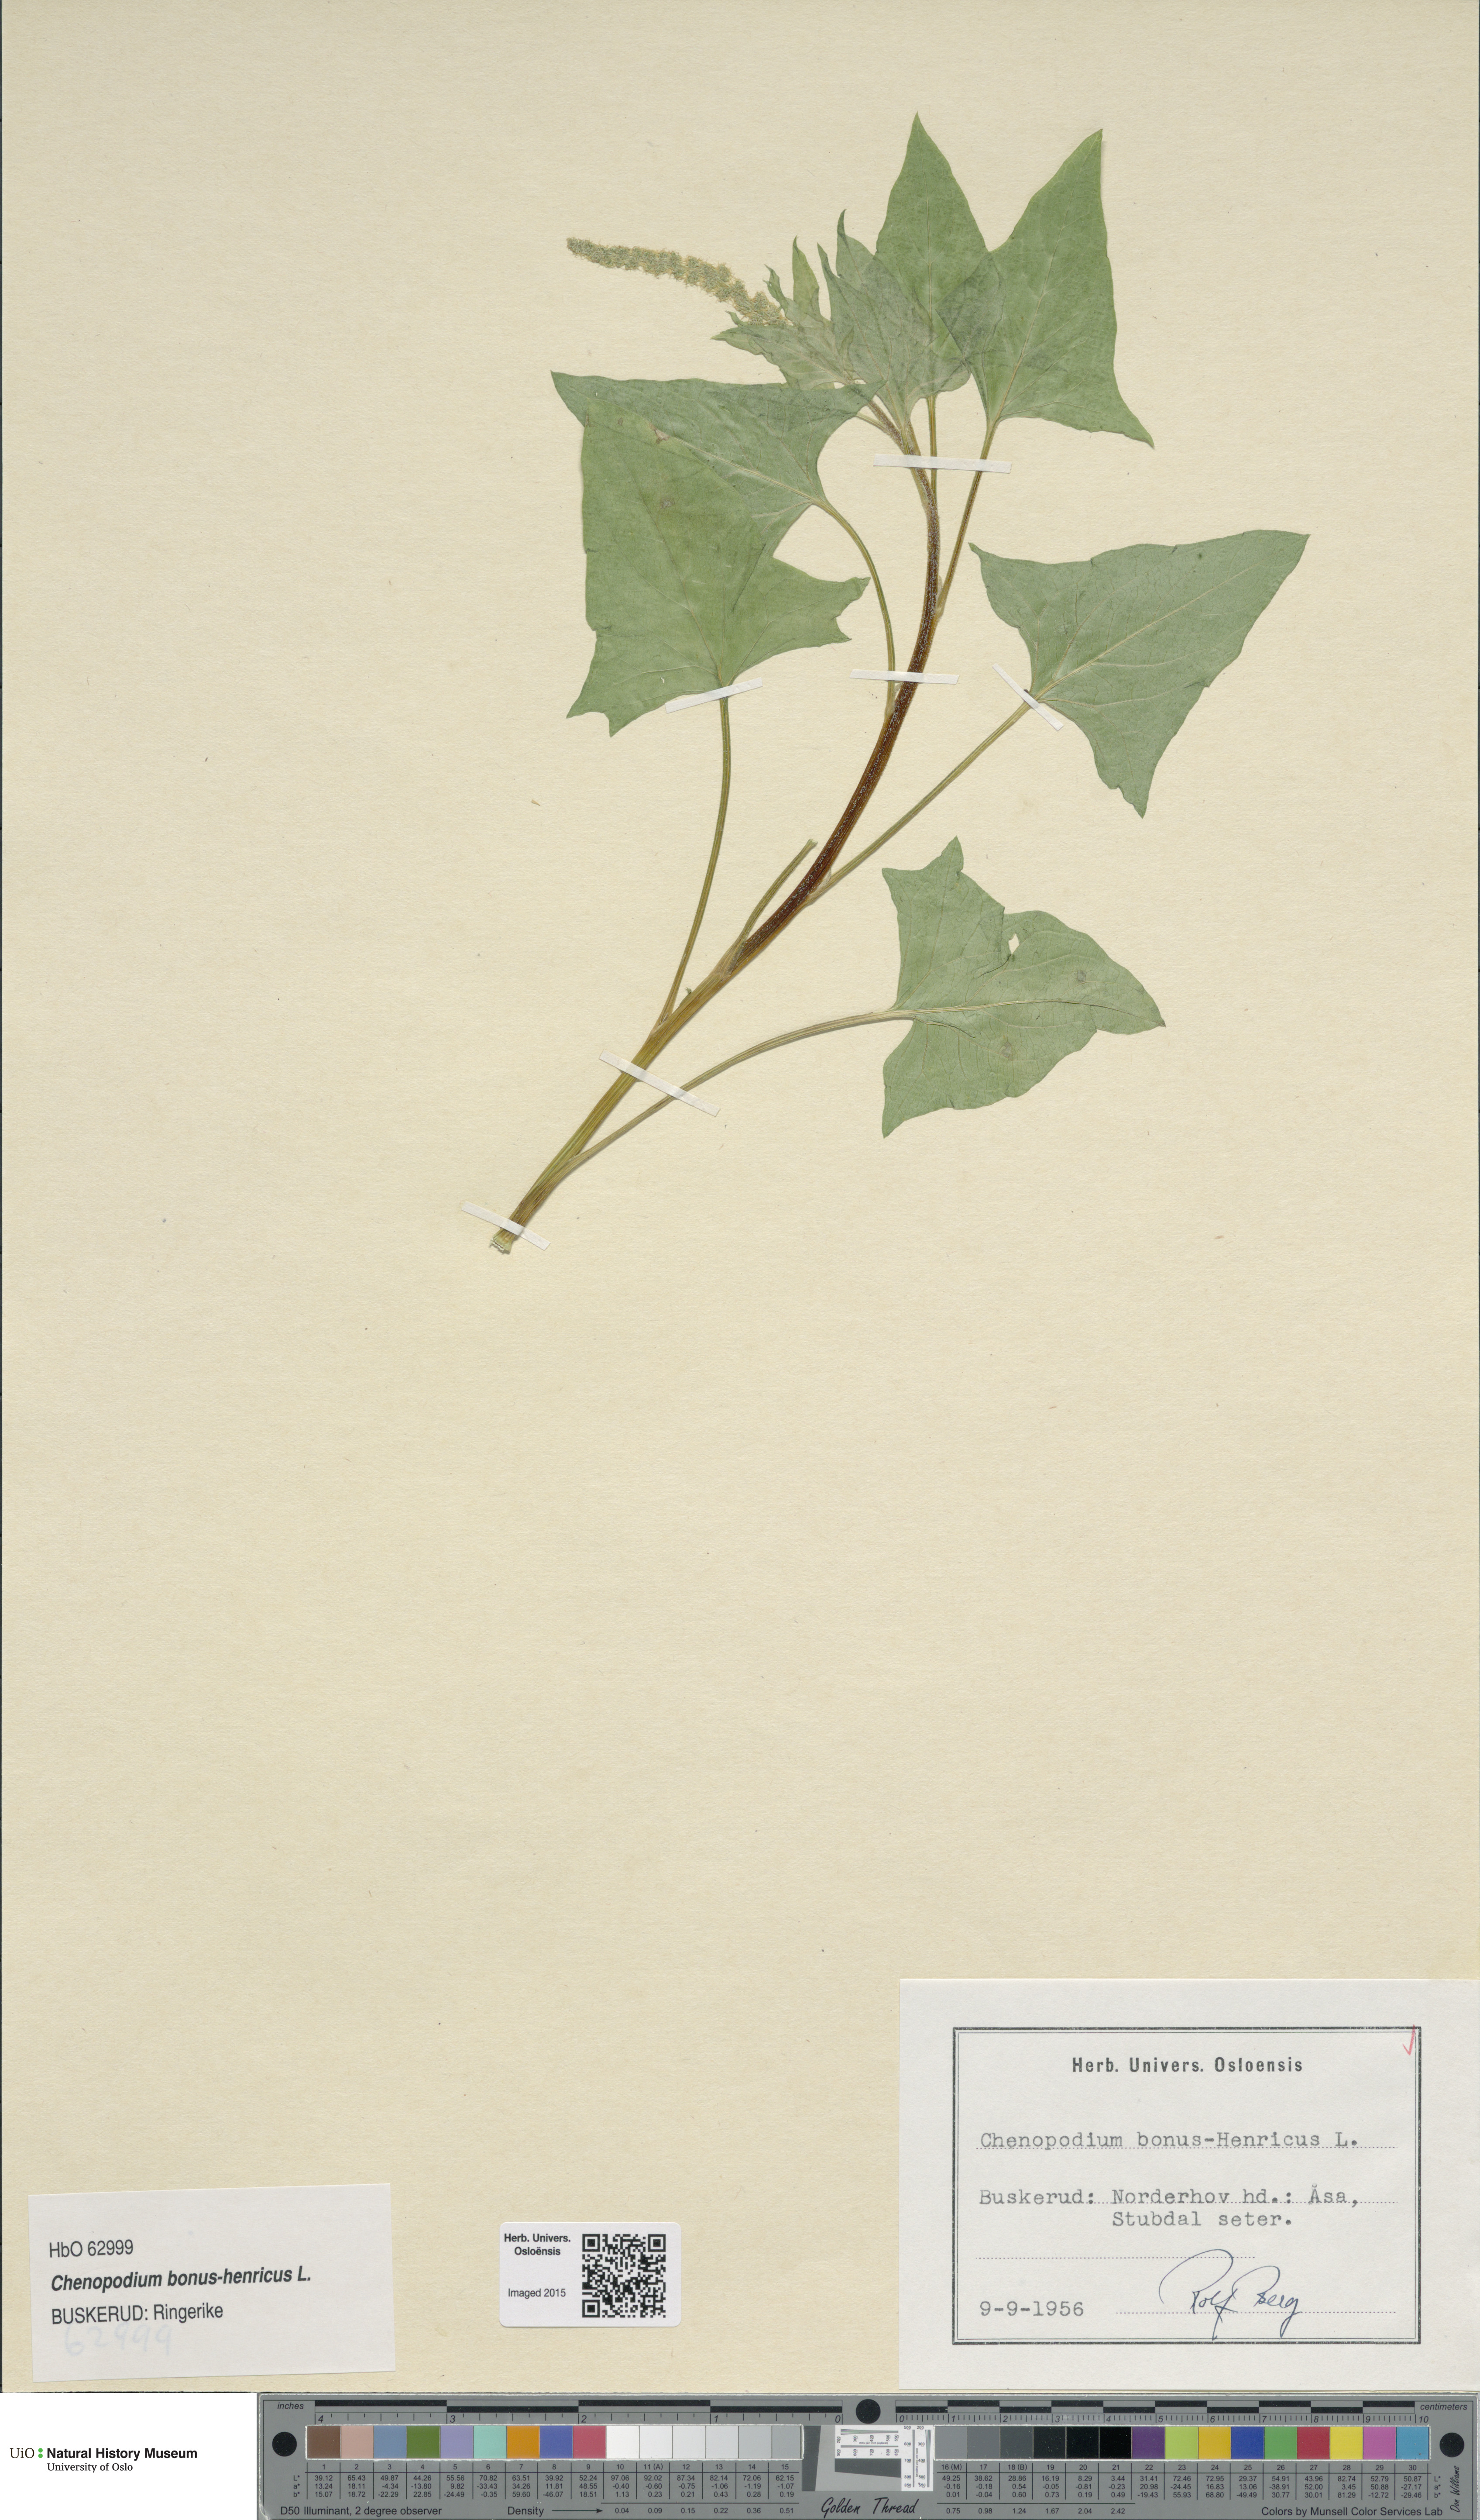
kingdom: Plantae
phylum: Tracheophyta
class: Magnoliopsida
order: Caryophyllales
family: Amaranthaceae
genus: Blitum
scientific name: Blitum bonus-henricus
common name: Good king henry
